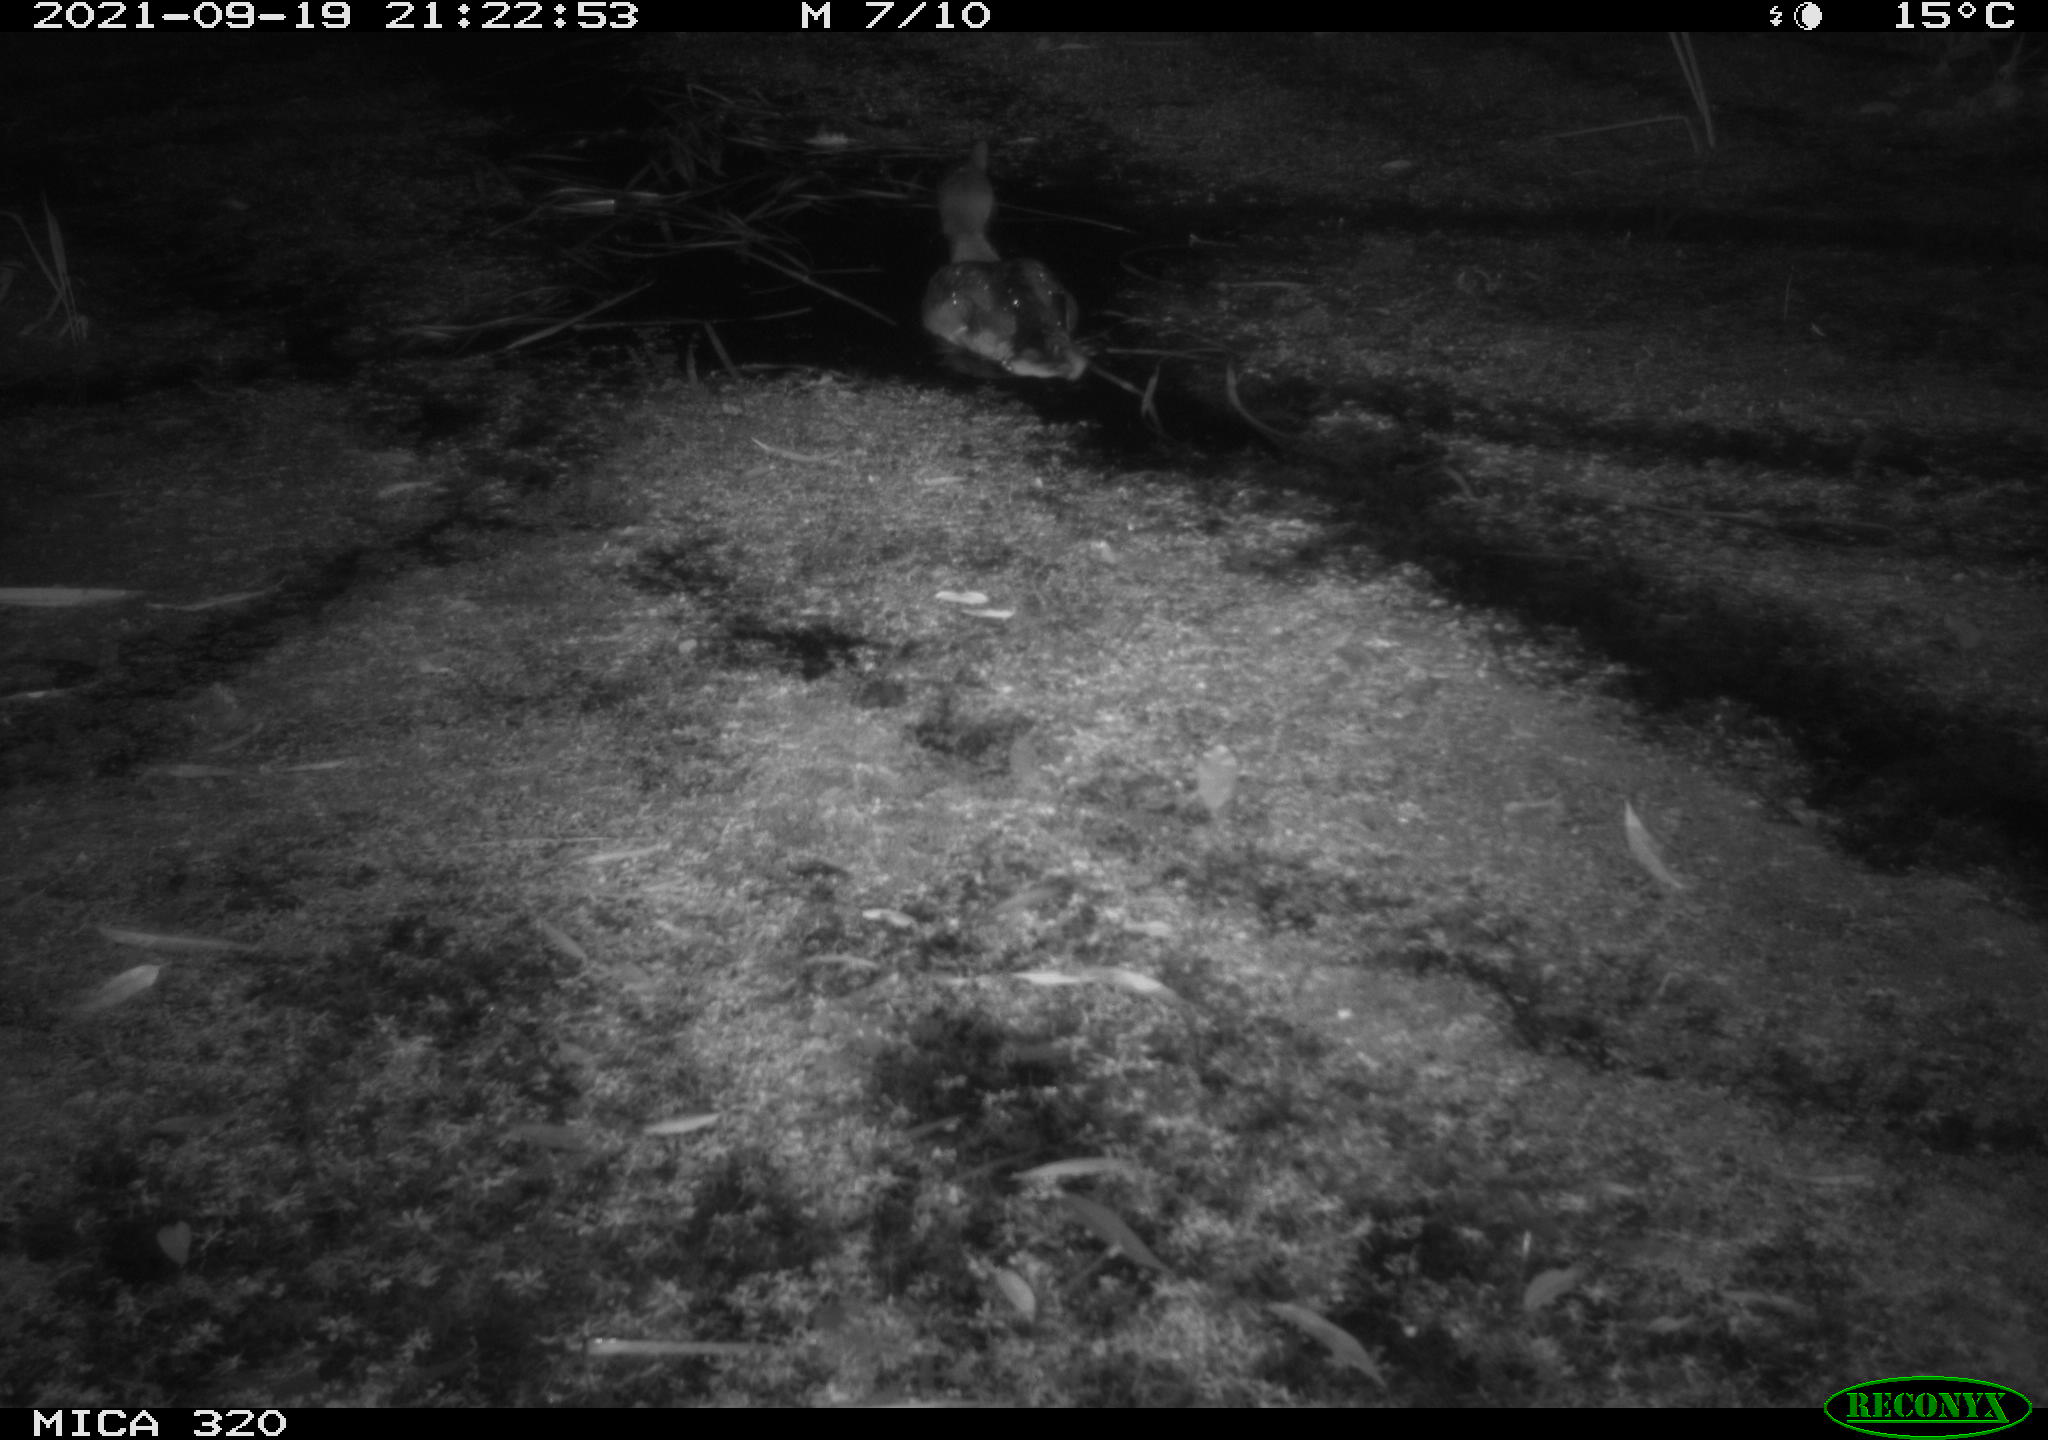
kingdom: Animalia
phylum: Chordata
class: Aves
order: Anseriformes
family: Anatidae
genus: Anas
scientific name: Anas platyrhynchos
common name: Mallard
